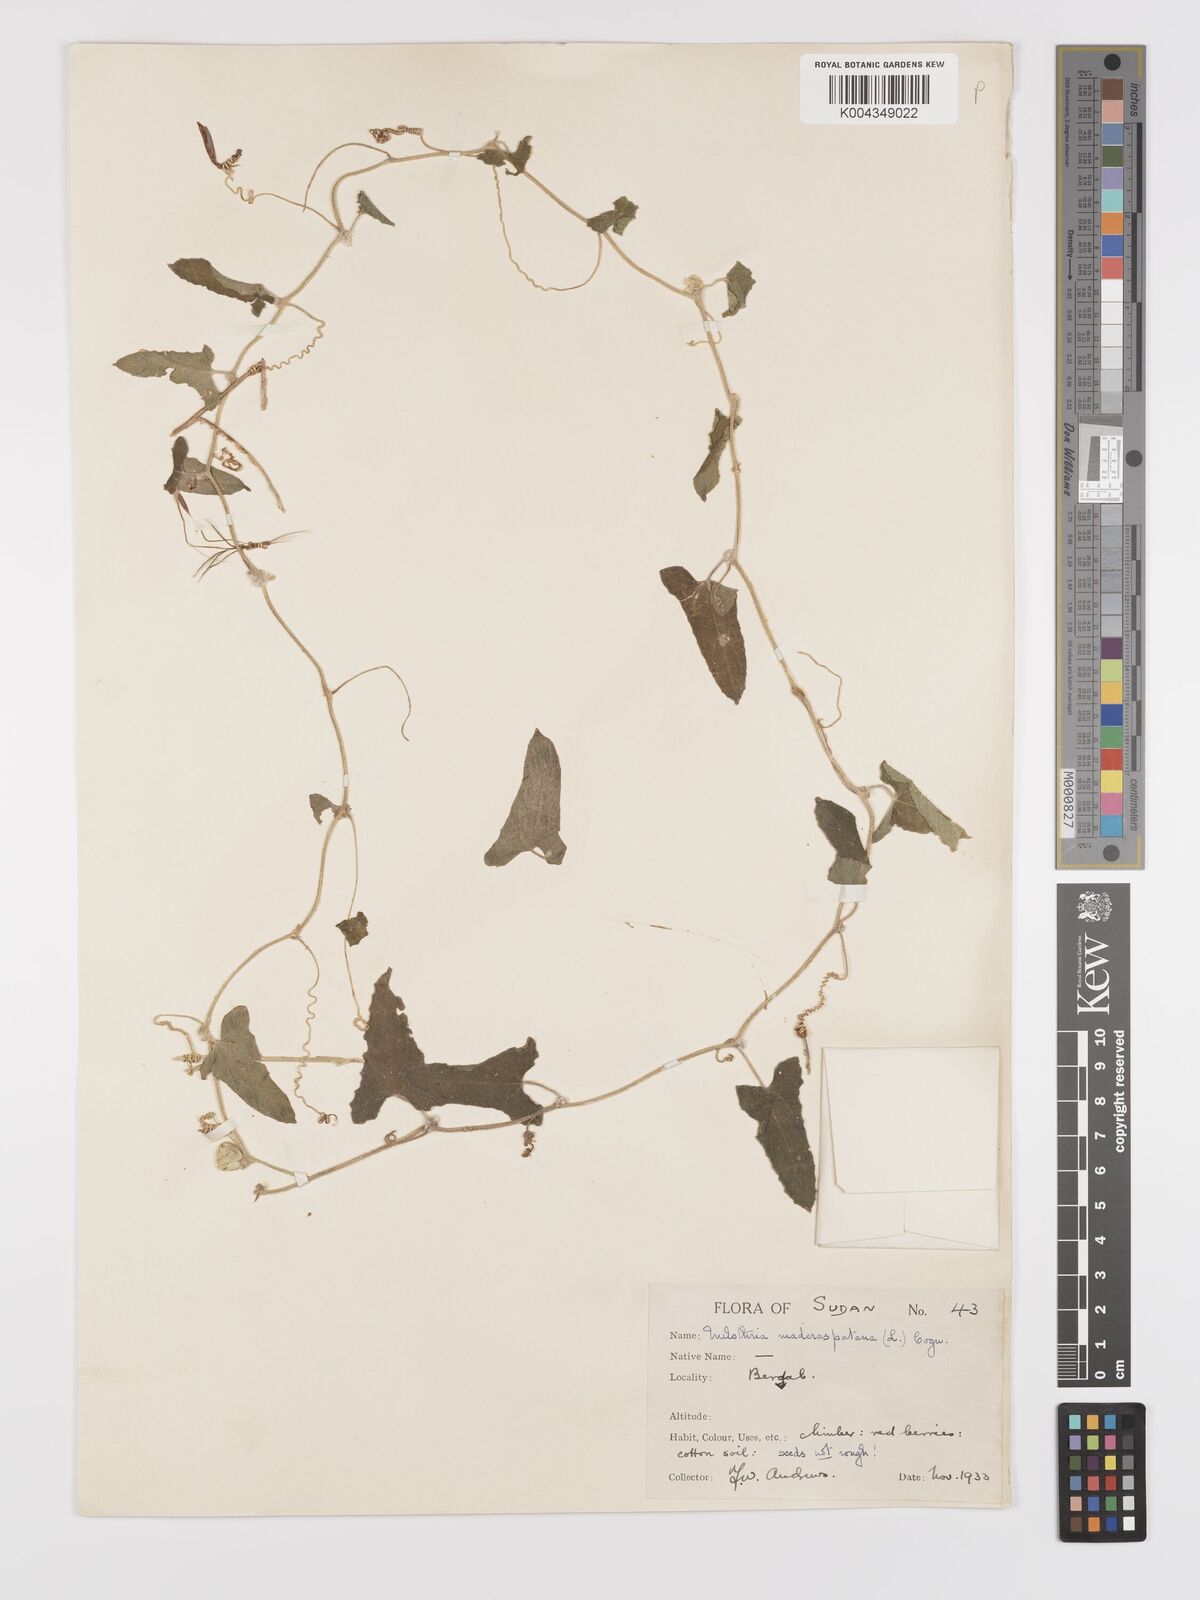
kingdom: Plantae
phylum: Tracheophyta
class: Magnoliopsida
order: Cucurbitales
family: Cucurbitaceae
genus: Cucumis
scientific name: Cucumis maderaspatanus
